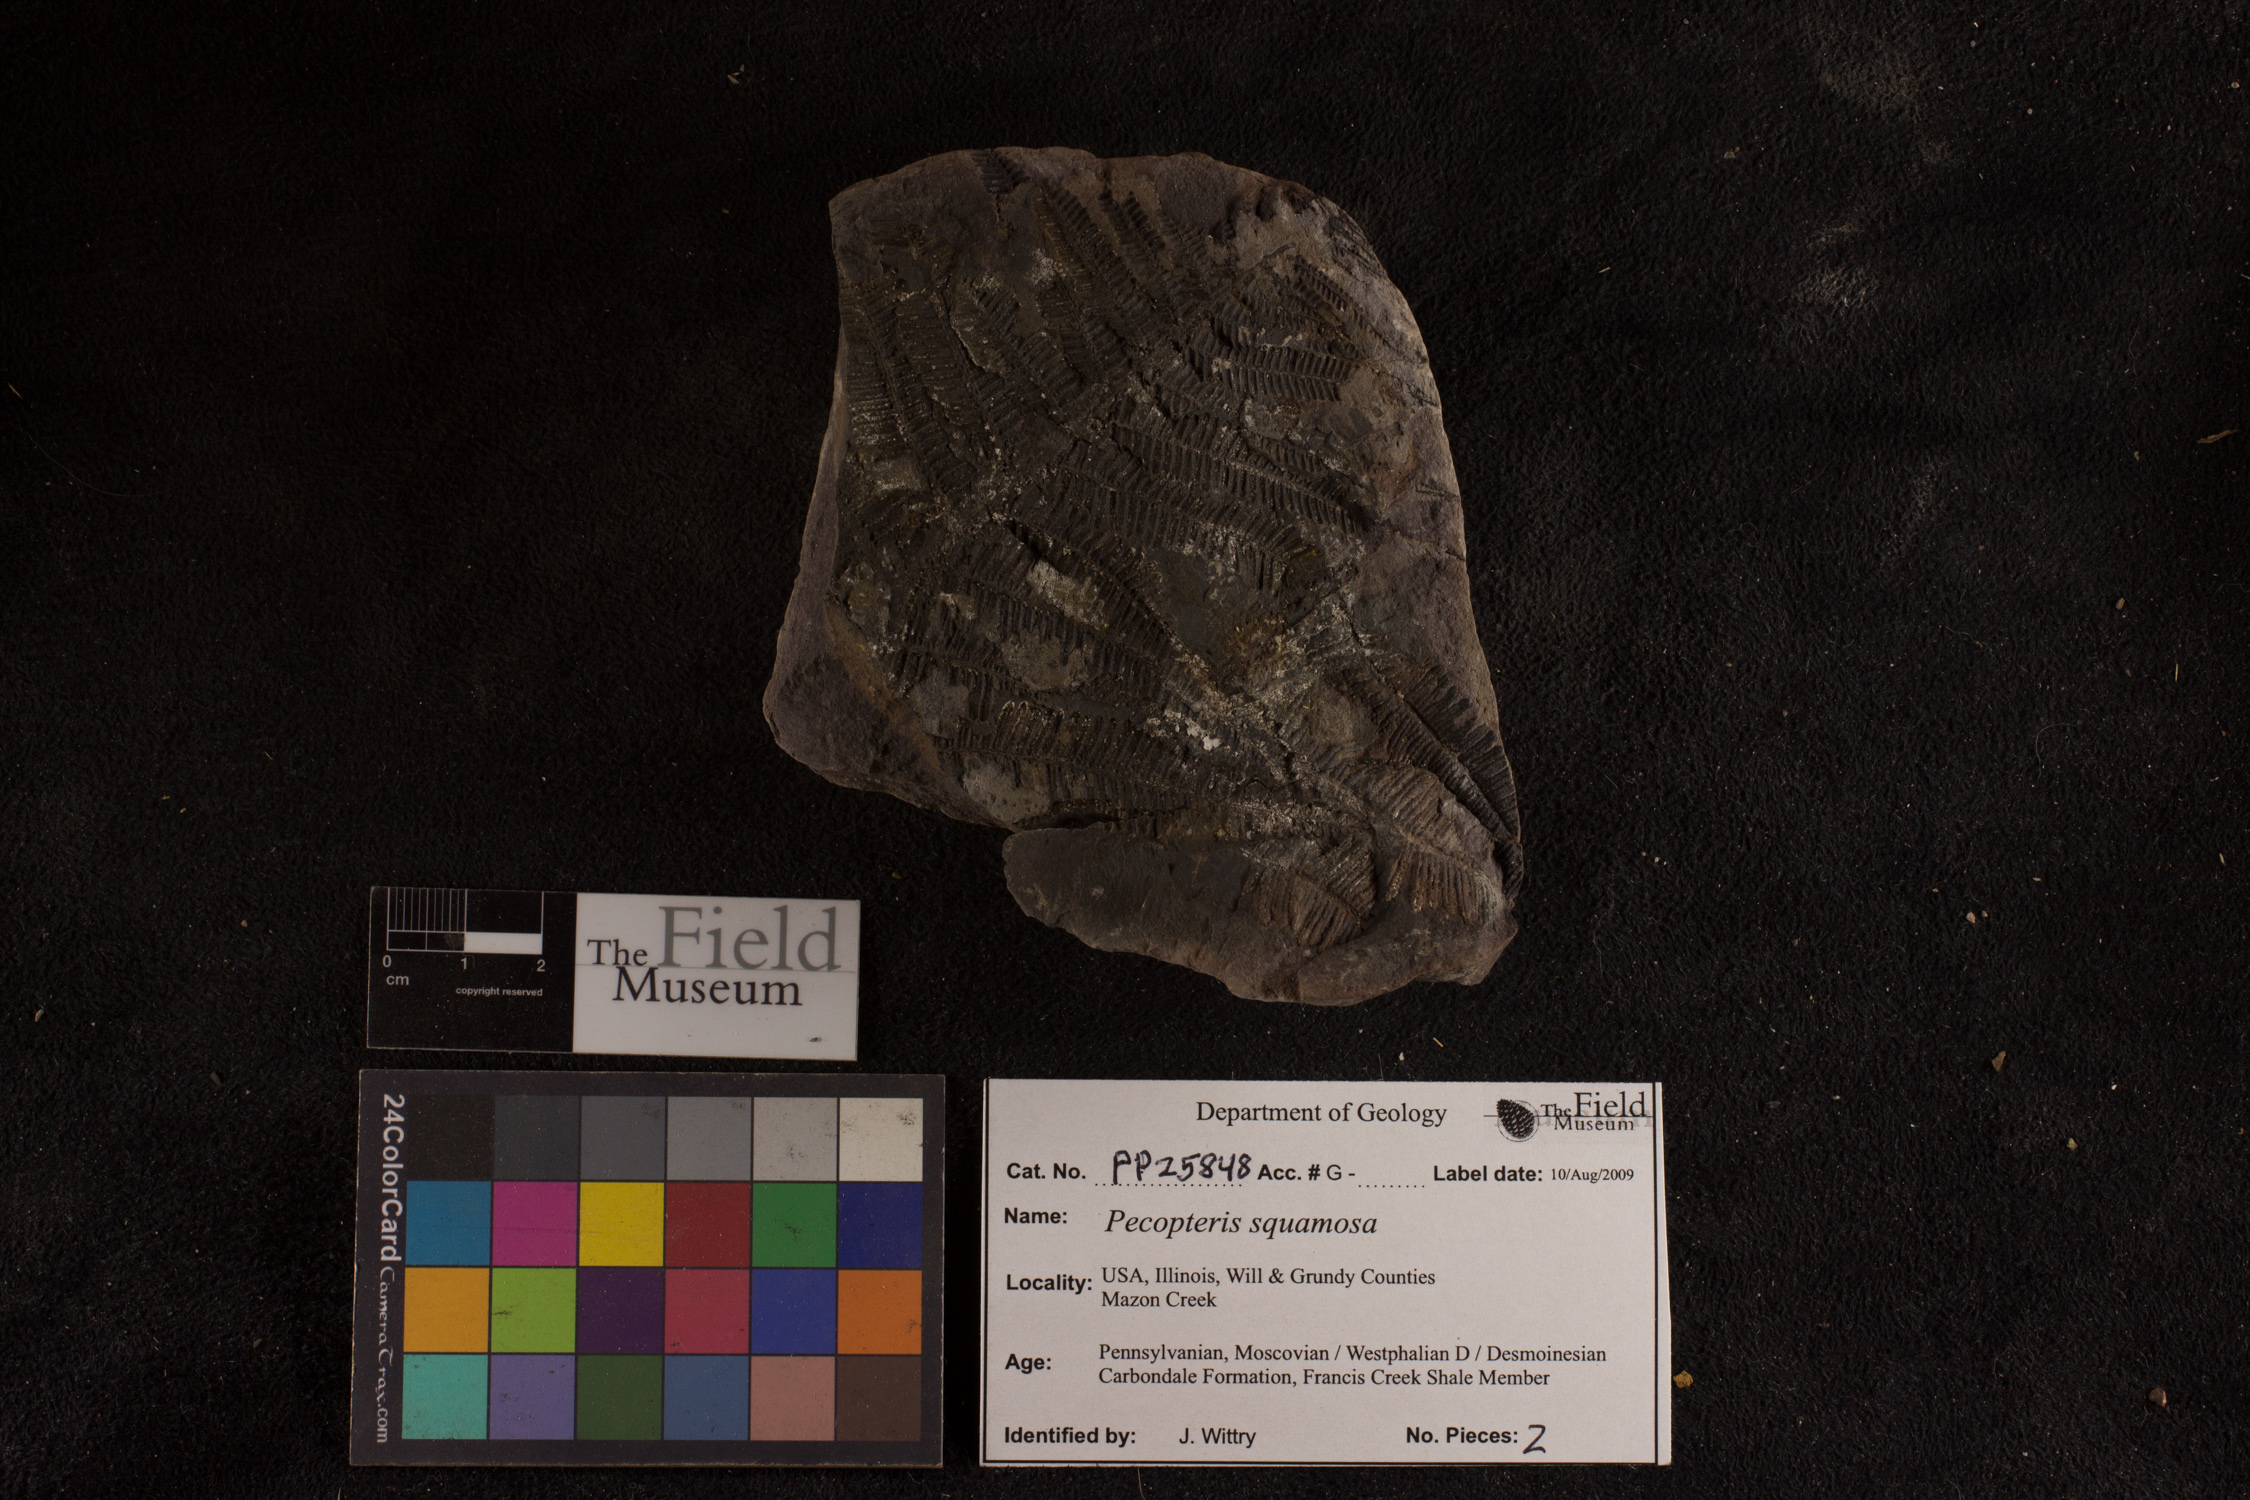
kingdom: Plantae
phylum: Tracheophyta
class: Polypodiopsida
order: Marattiales
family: Asterothecaceae
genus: Pecopteris
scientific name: Pecopteris
